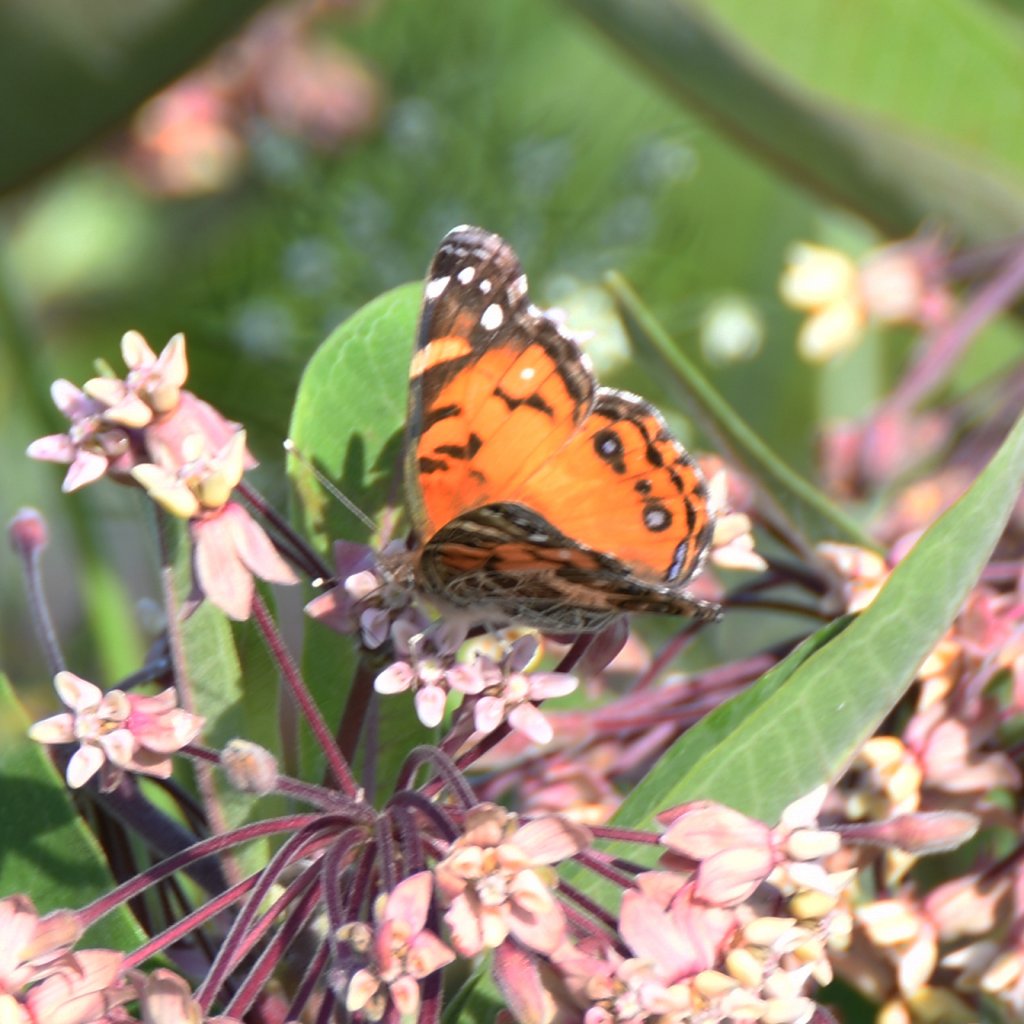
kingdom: Animalia
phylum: Arthropoda
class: Insecta
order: Lepidoptera
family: Nymphalidae
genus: Vanessa
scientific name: Vanessa virginiensis
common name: American Lady
